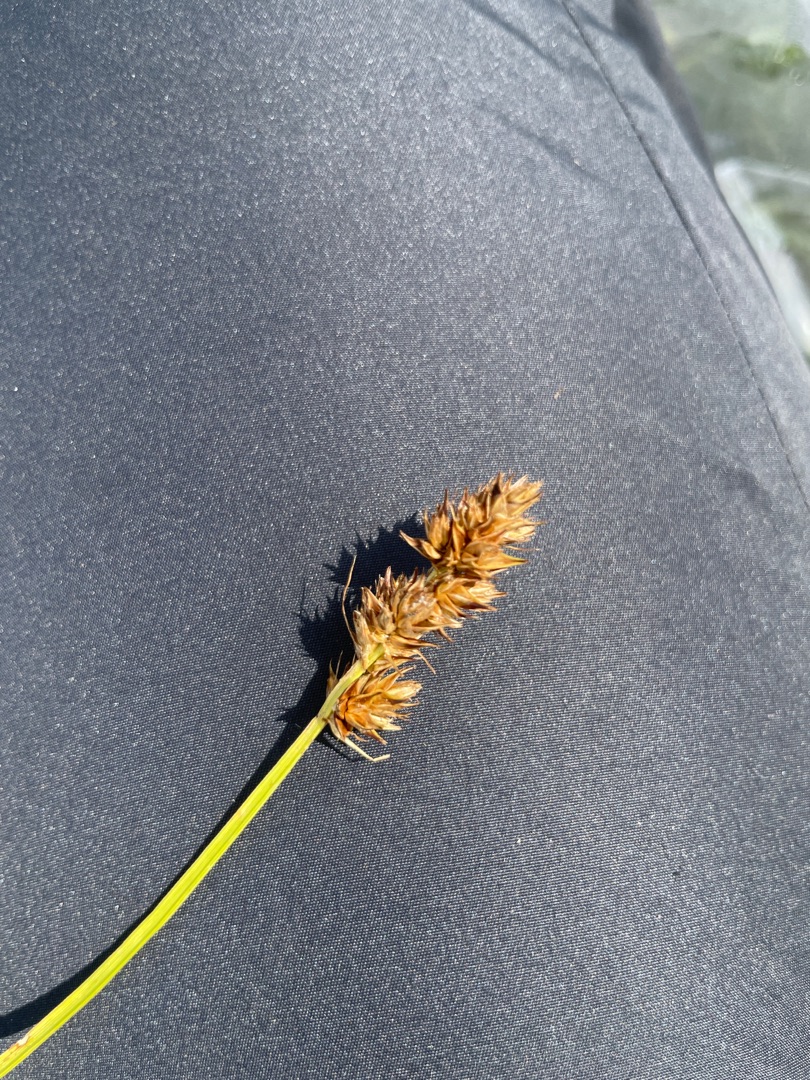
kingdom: Plantae
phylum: Tracheophyta
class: Liliopsida
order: Poales
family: Cyperaceae
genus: Carex
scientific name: Carex otrubae
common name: Sylt-star
